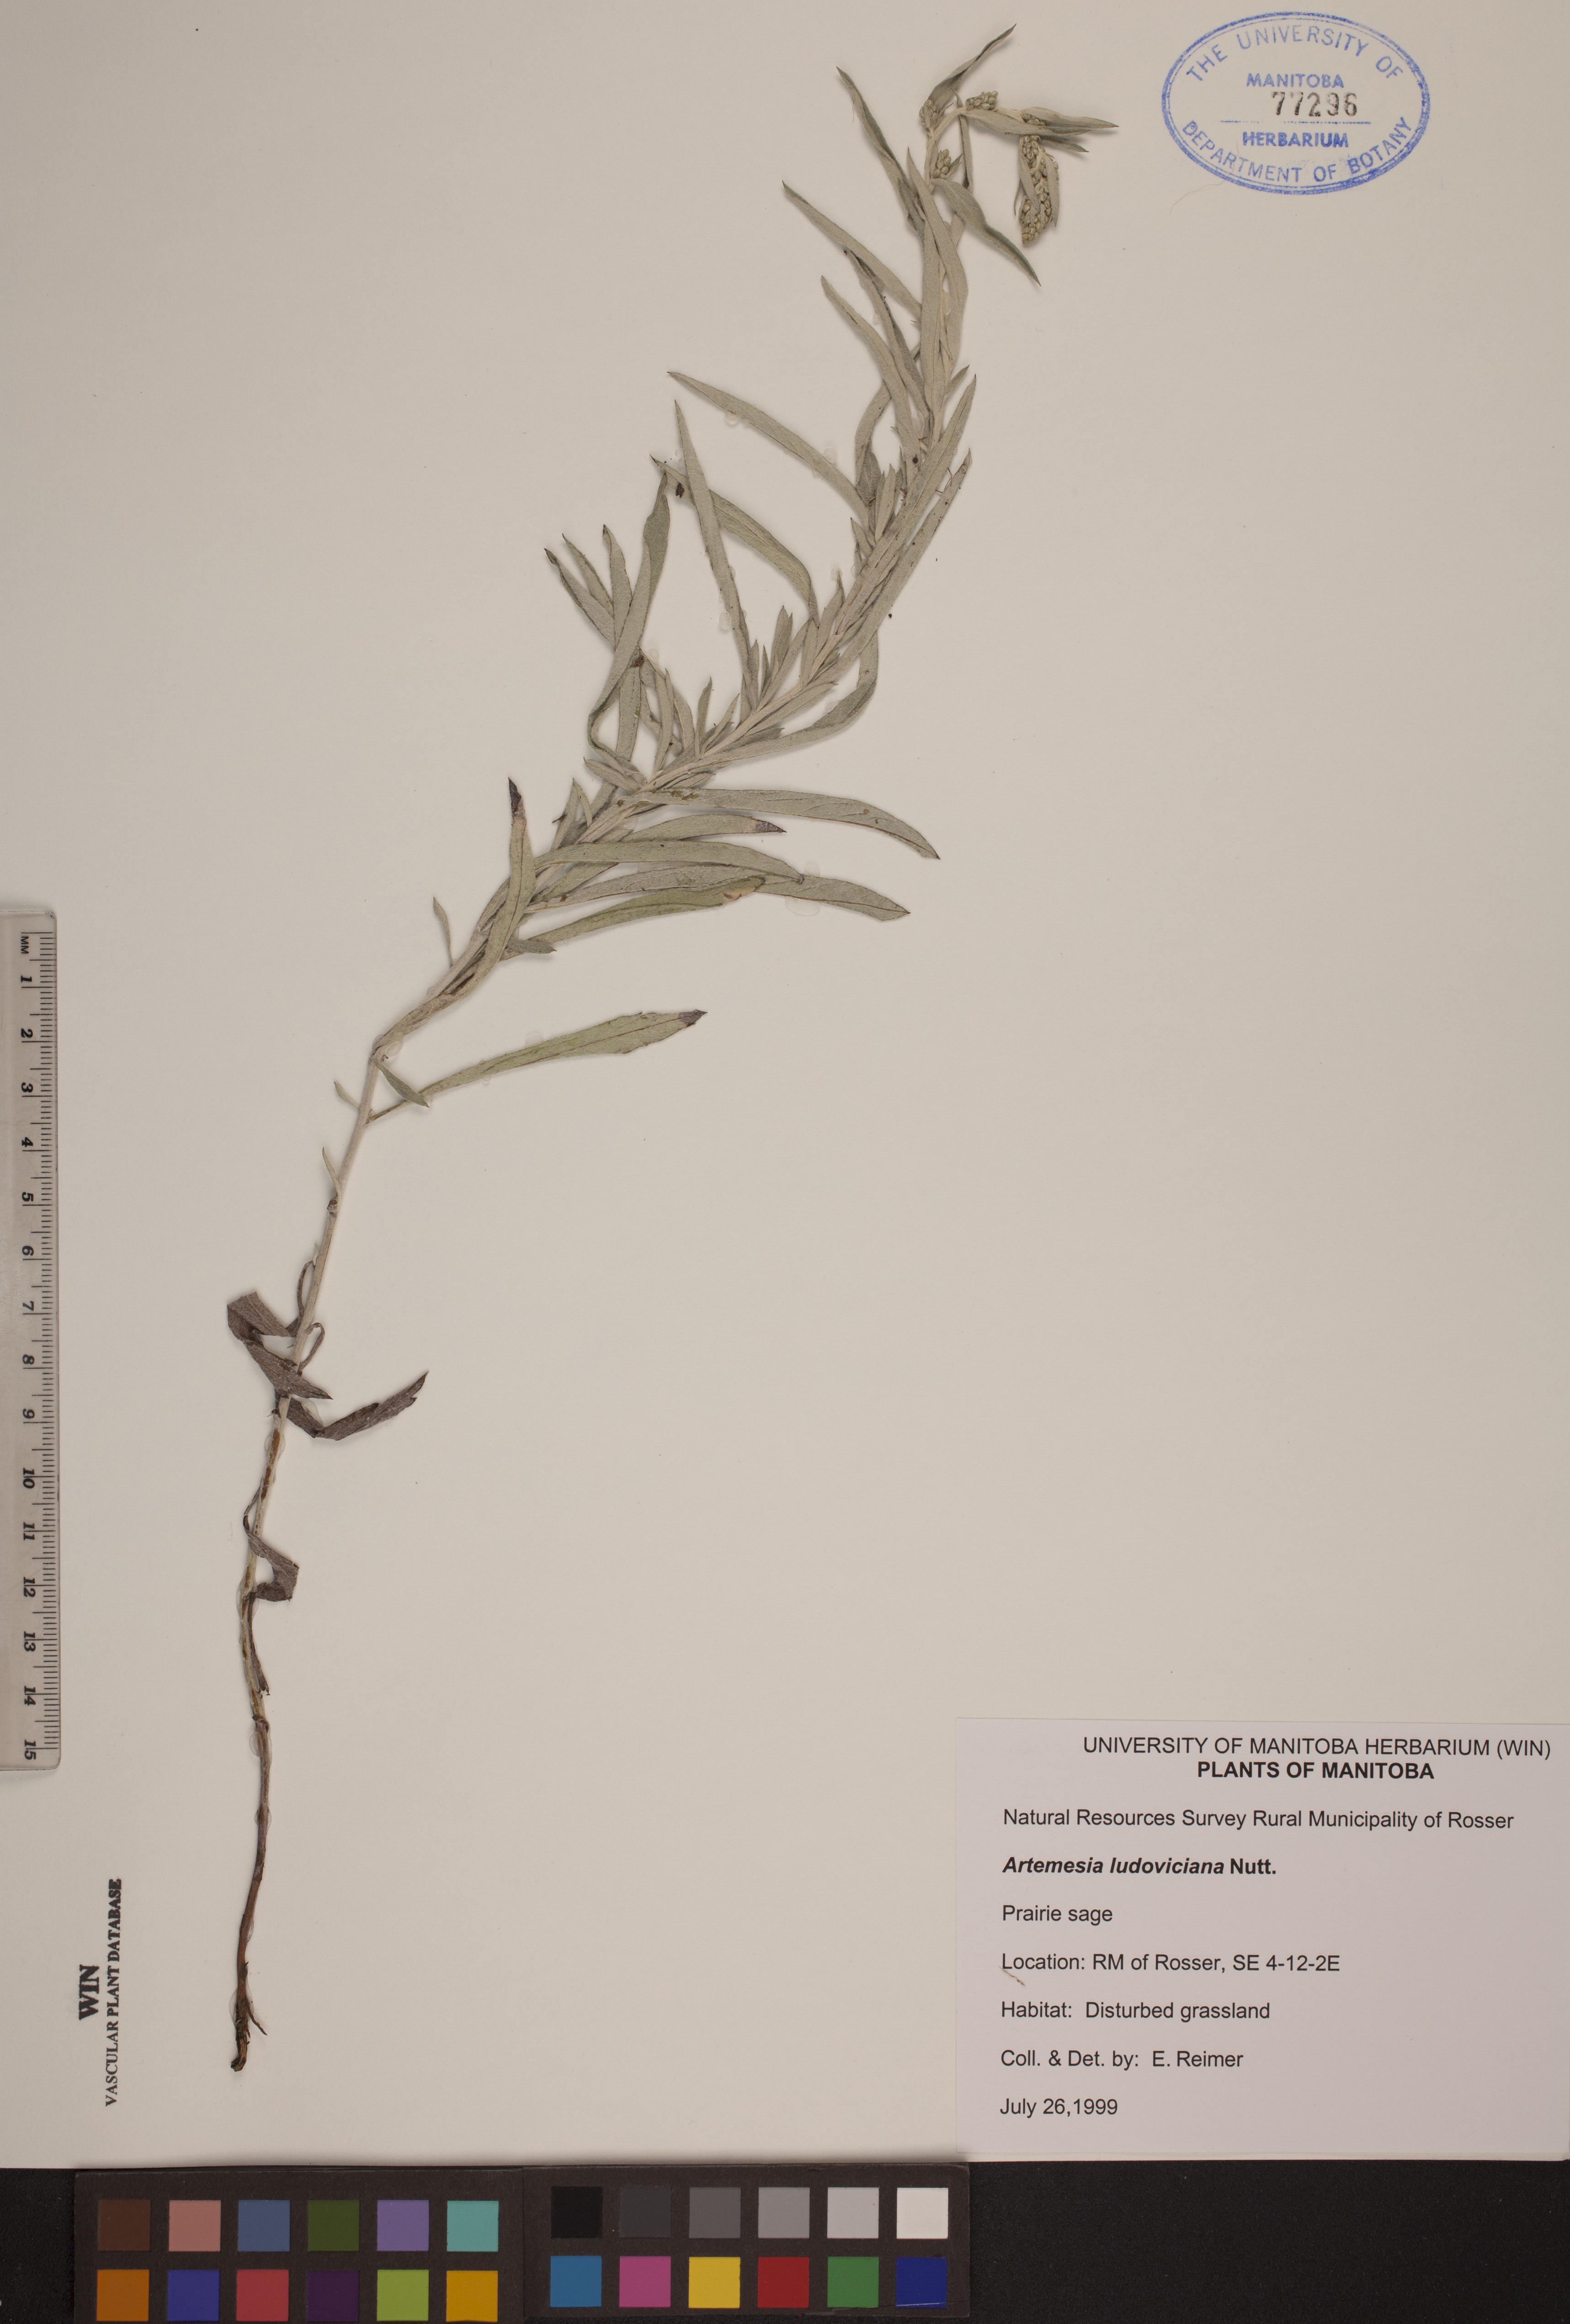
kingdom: Plantae
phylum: Tracheophyta
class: Magnoliopsida
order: Asterales
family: Asteraceae
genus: Artemisia
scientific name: Artemisia ludoviciana
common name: Western mugwort
